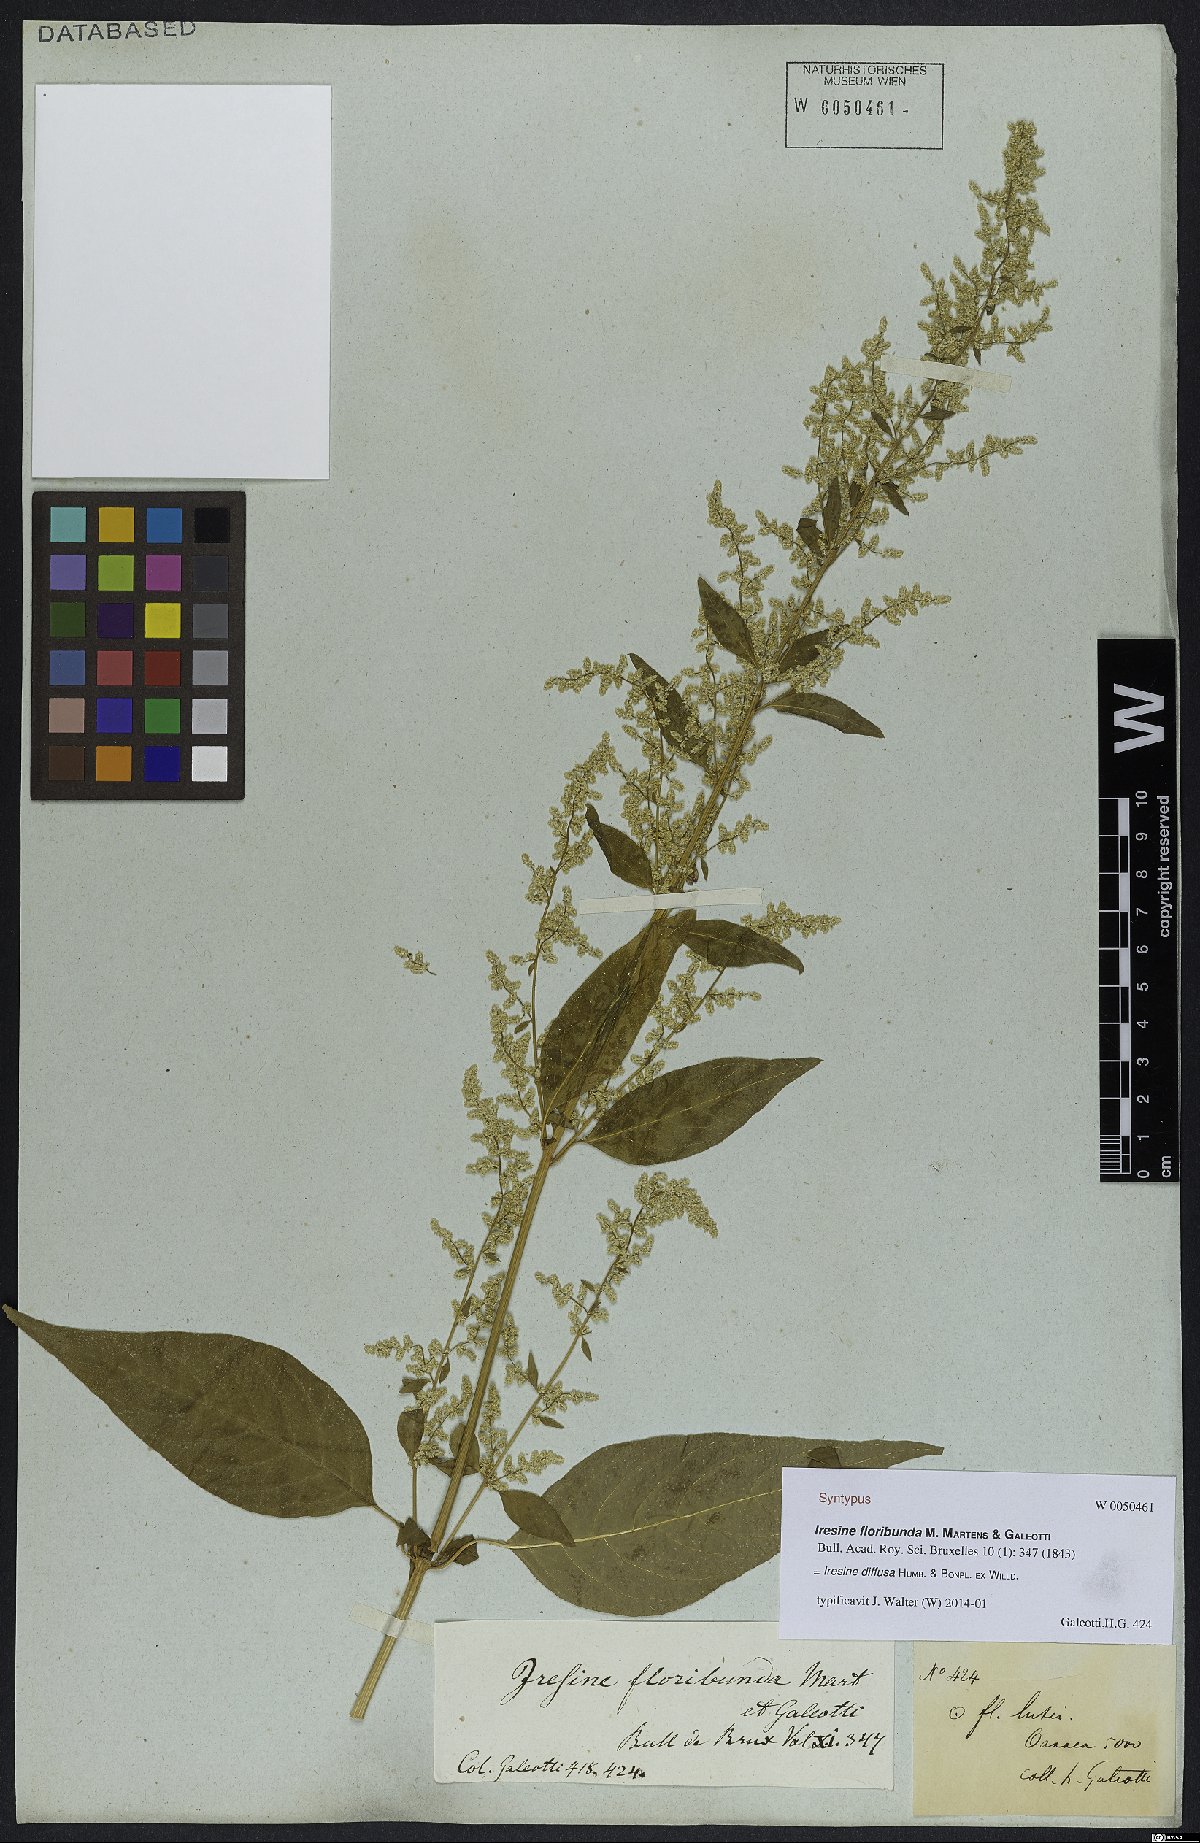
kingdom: Plantae
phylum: Tracheophyta
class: Magnoliopsida
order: Caryophyllales
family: Amaranthaceae
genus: Iresine
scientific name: Iresine diffusa
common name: Juba's-bush
